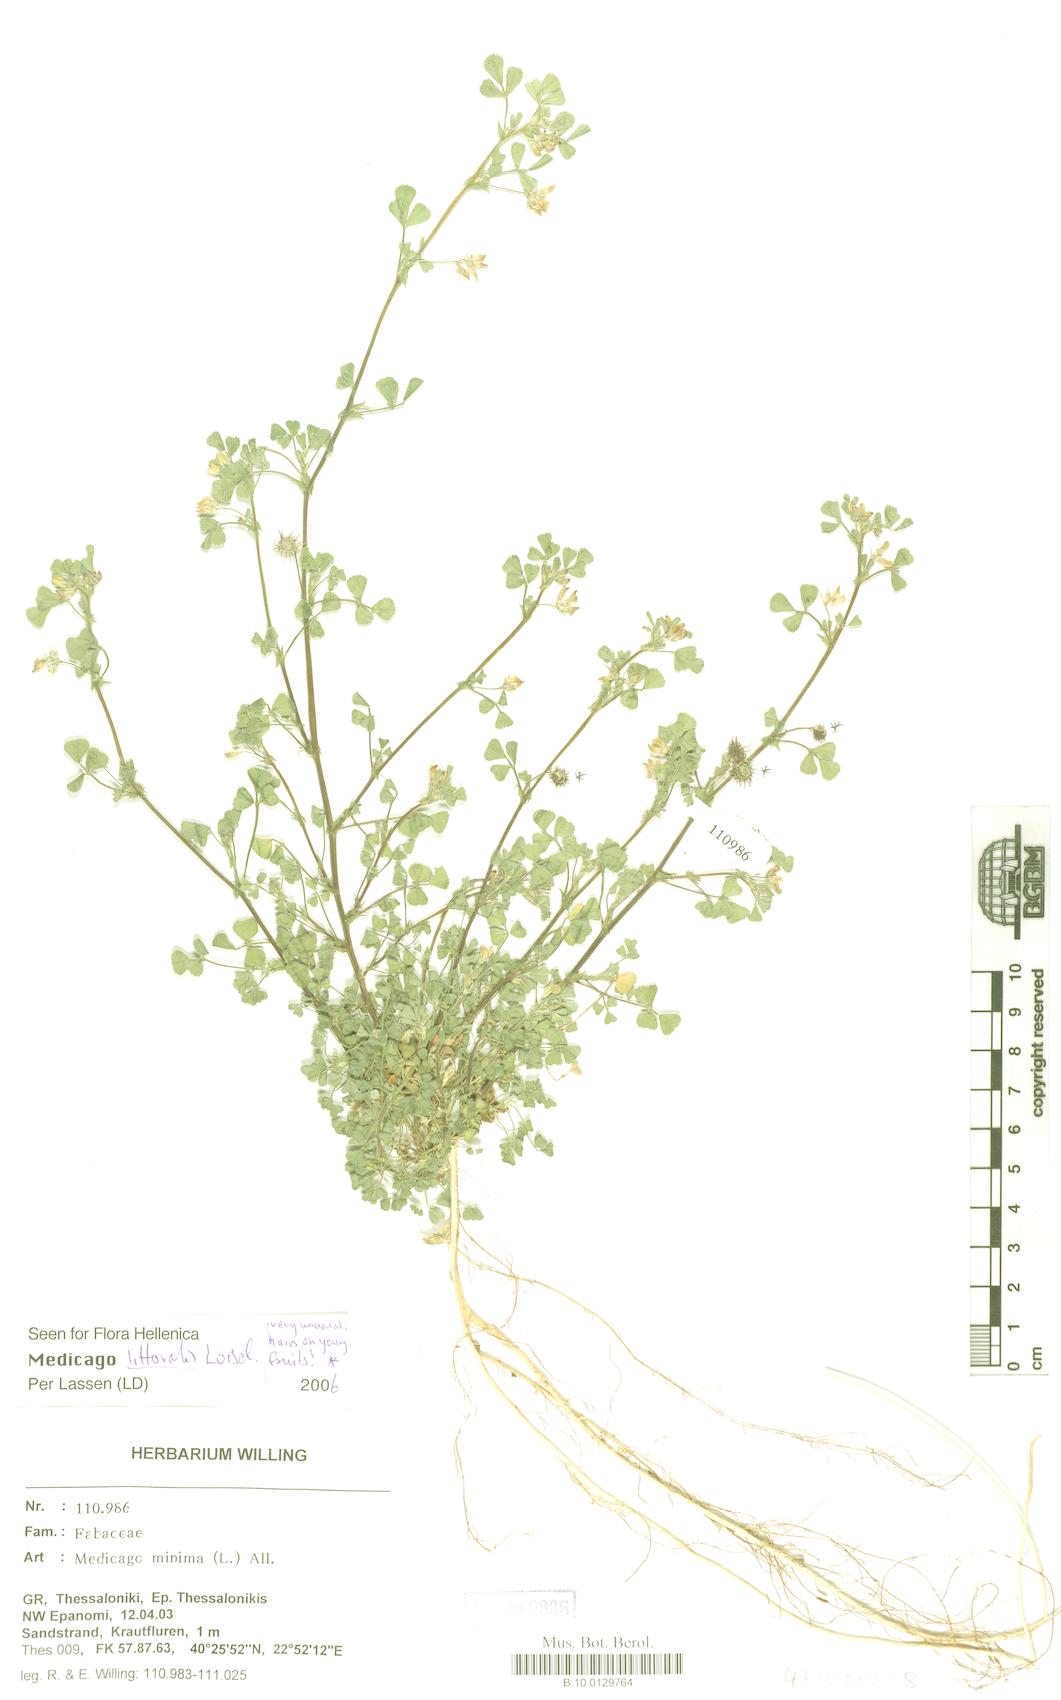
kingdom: Plantae
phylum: Tracheophyta
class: Magnoliopsida
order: Fabales
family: Fabaceae
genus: Medicago
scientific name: Medicago littoralis
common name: Shore medick
